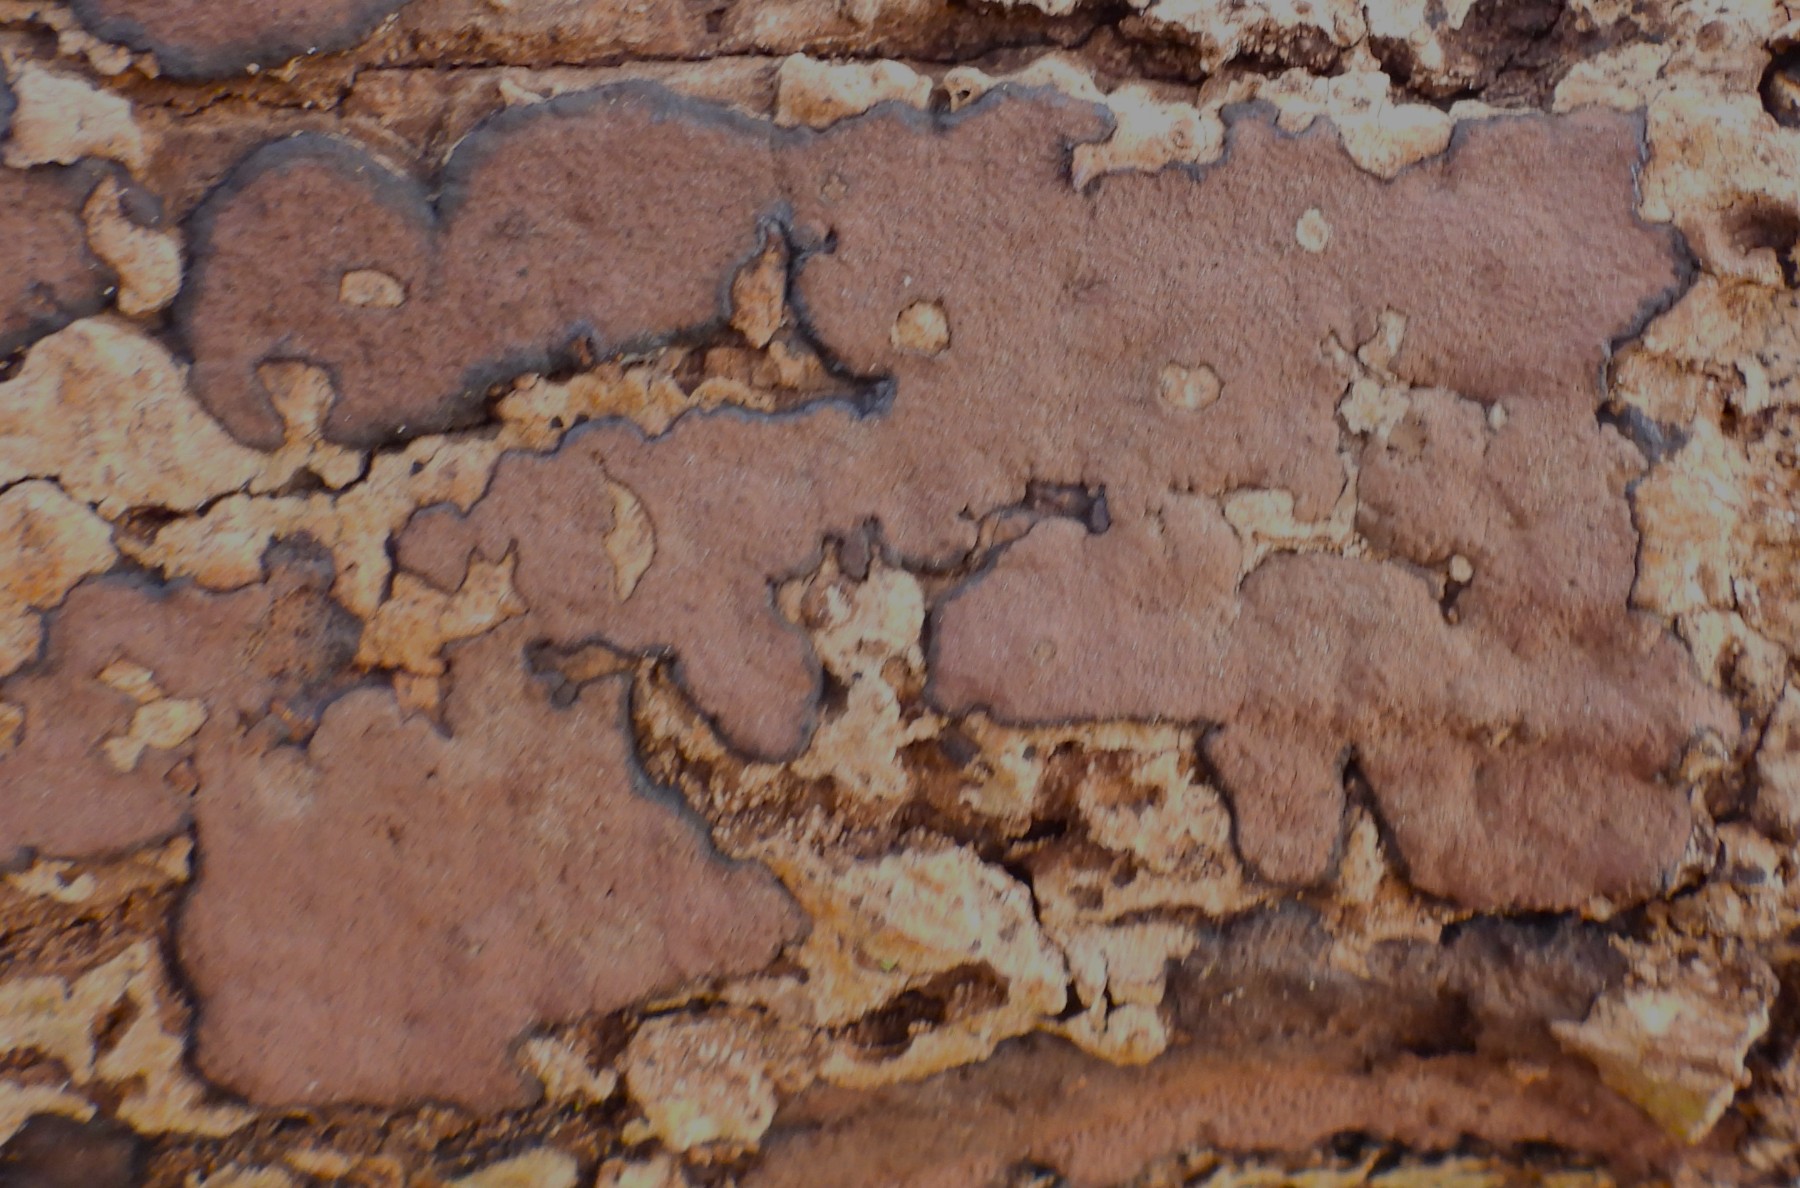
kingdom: Fungi
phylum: Ascomycota
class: Sordariomycetes
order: Xylariales
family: Hypoxylaceae
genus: Hypoxylon
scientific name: Hypoxylon petriniae
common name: nedsænket kulbær
